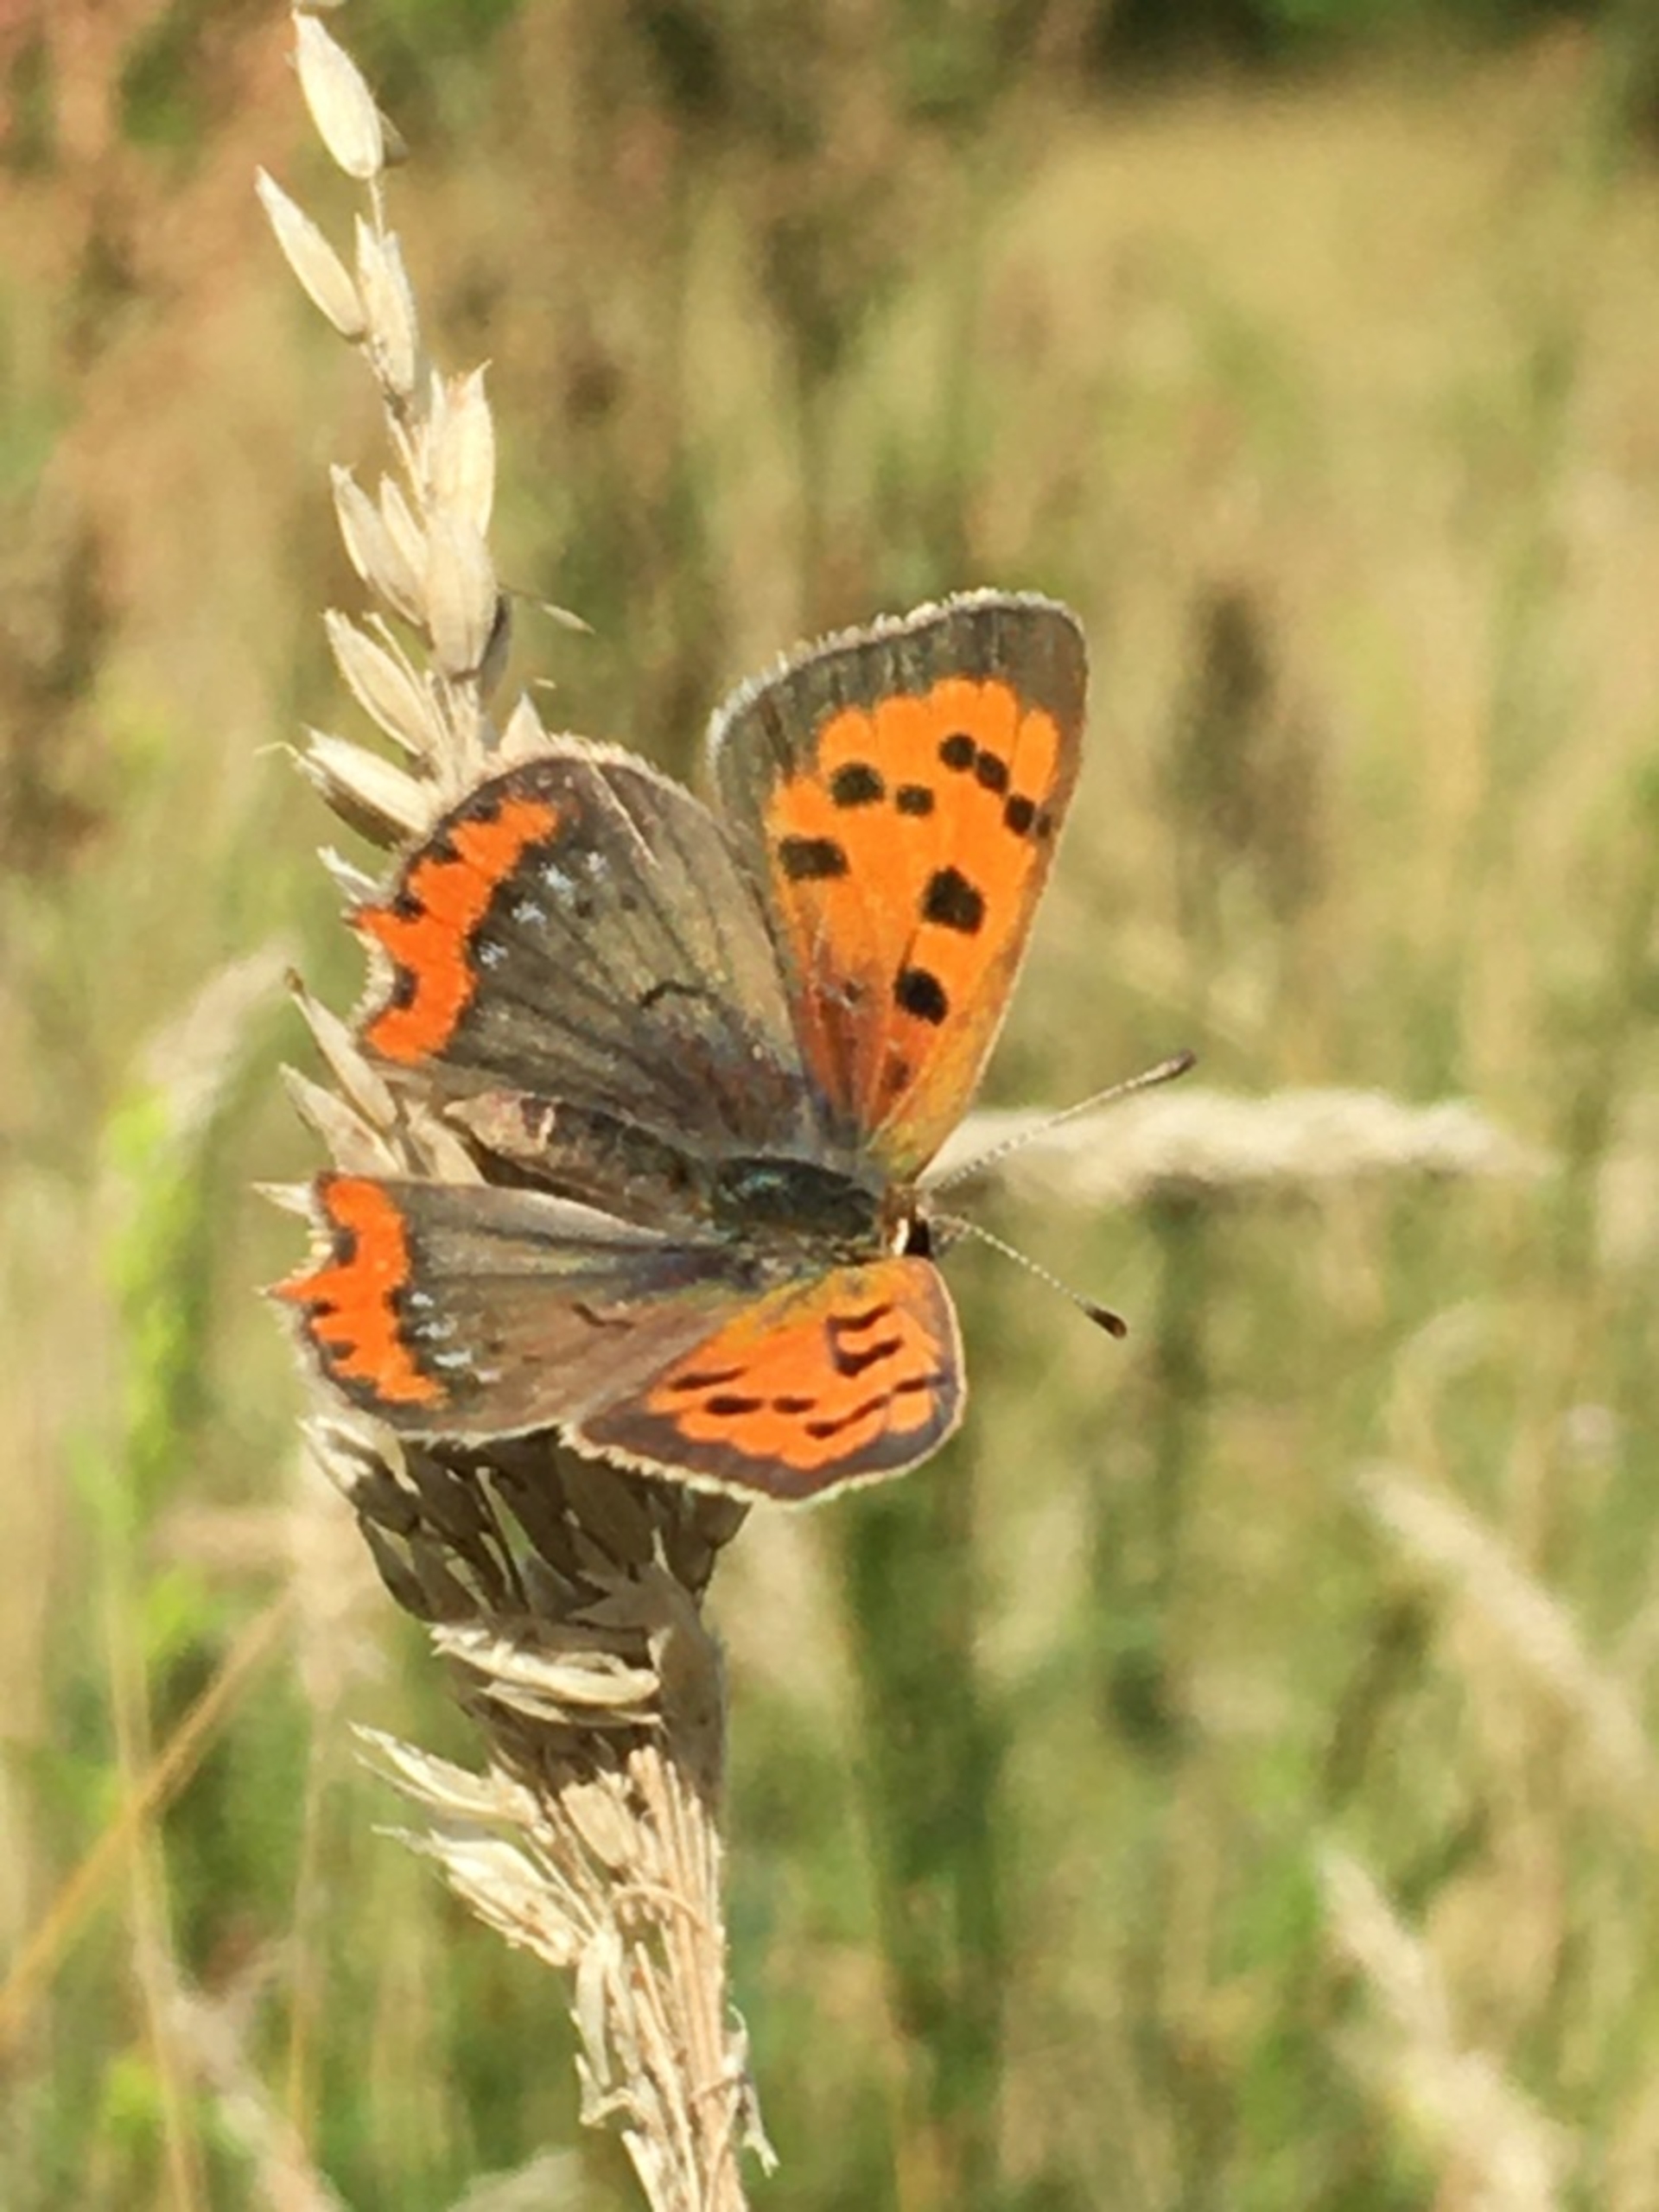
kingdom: Animalia
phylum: Arthropoda
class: Insecta
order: Lepidoptera
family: Lycaenidae
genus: Lycaena
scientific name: Lycaena phlaeas
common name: Lille ildfugl
